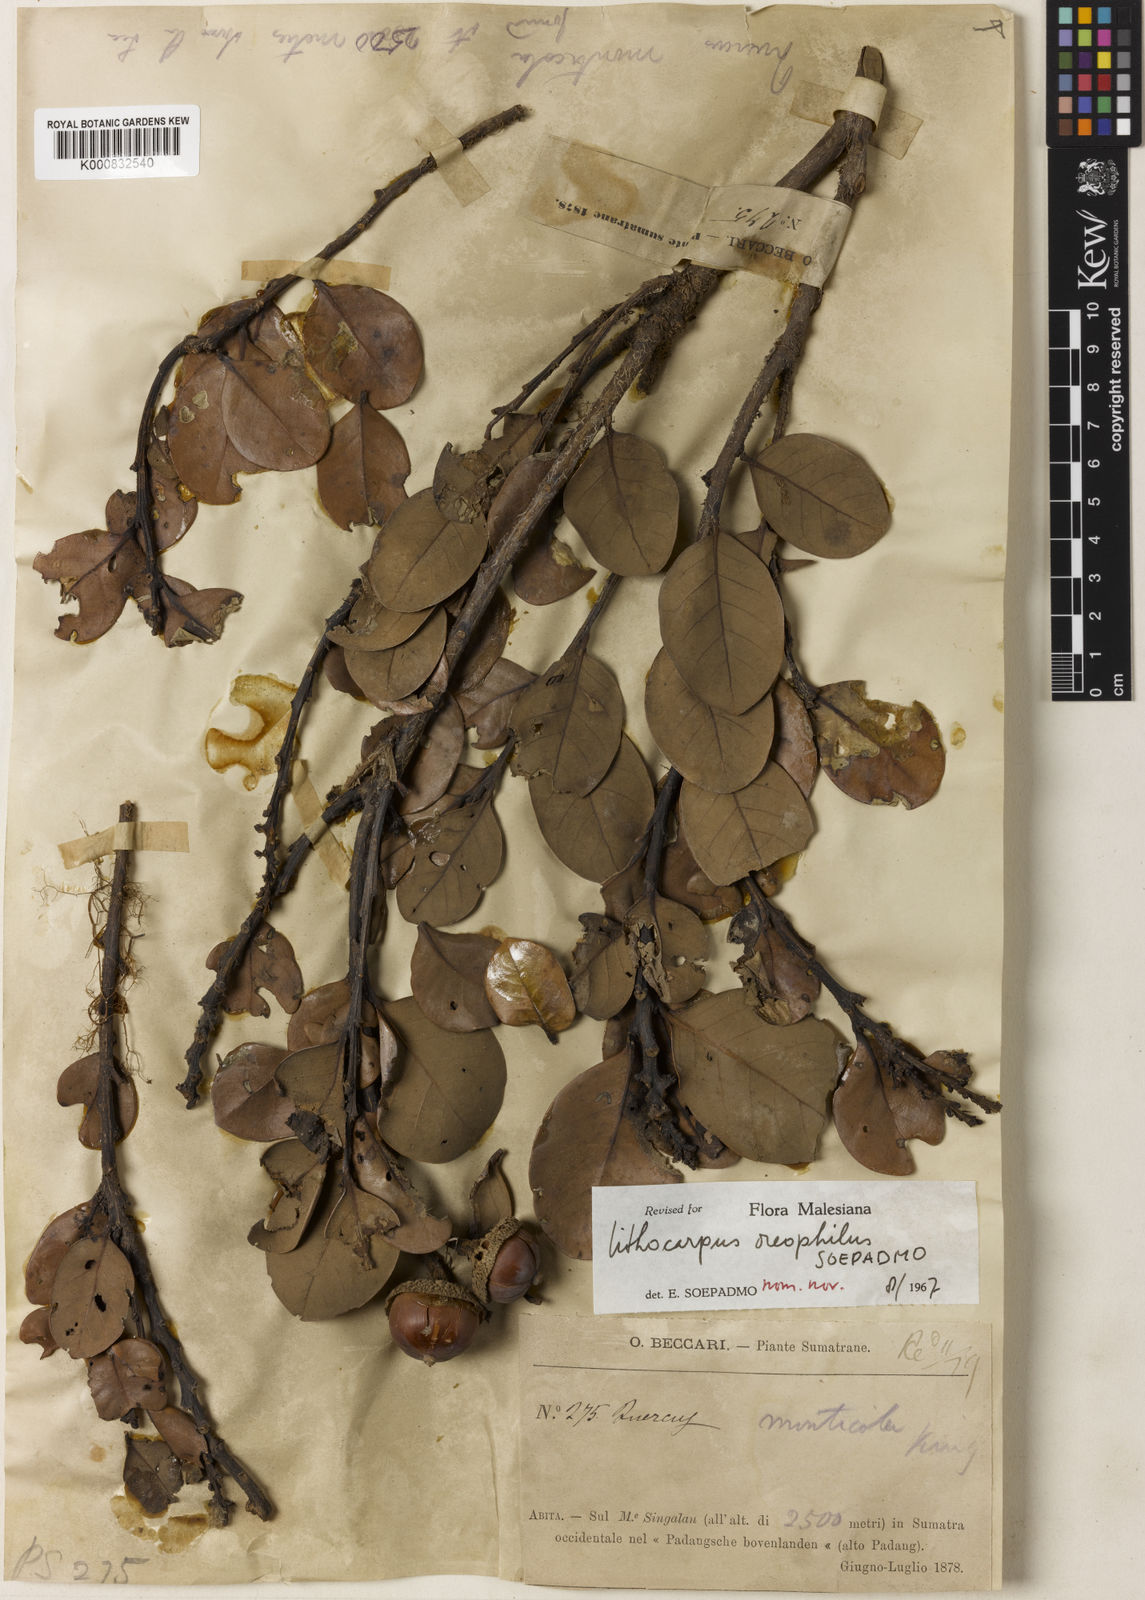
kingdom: Plantae
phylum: Tracheophyta
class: Magnoliopsida
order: Fagales
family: Fagaceae
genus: Lithocarpus
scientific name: Lithocarpus monticola
